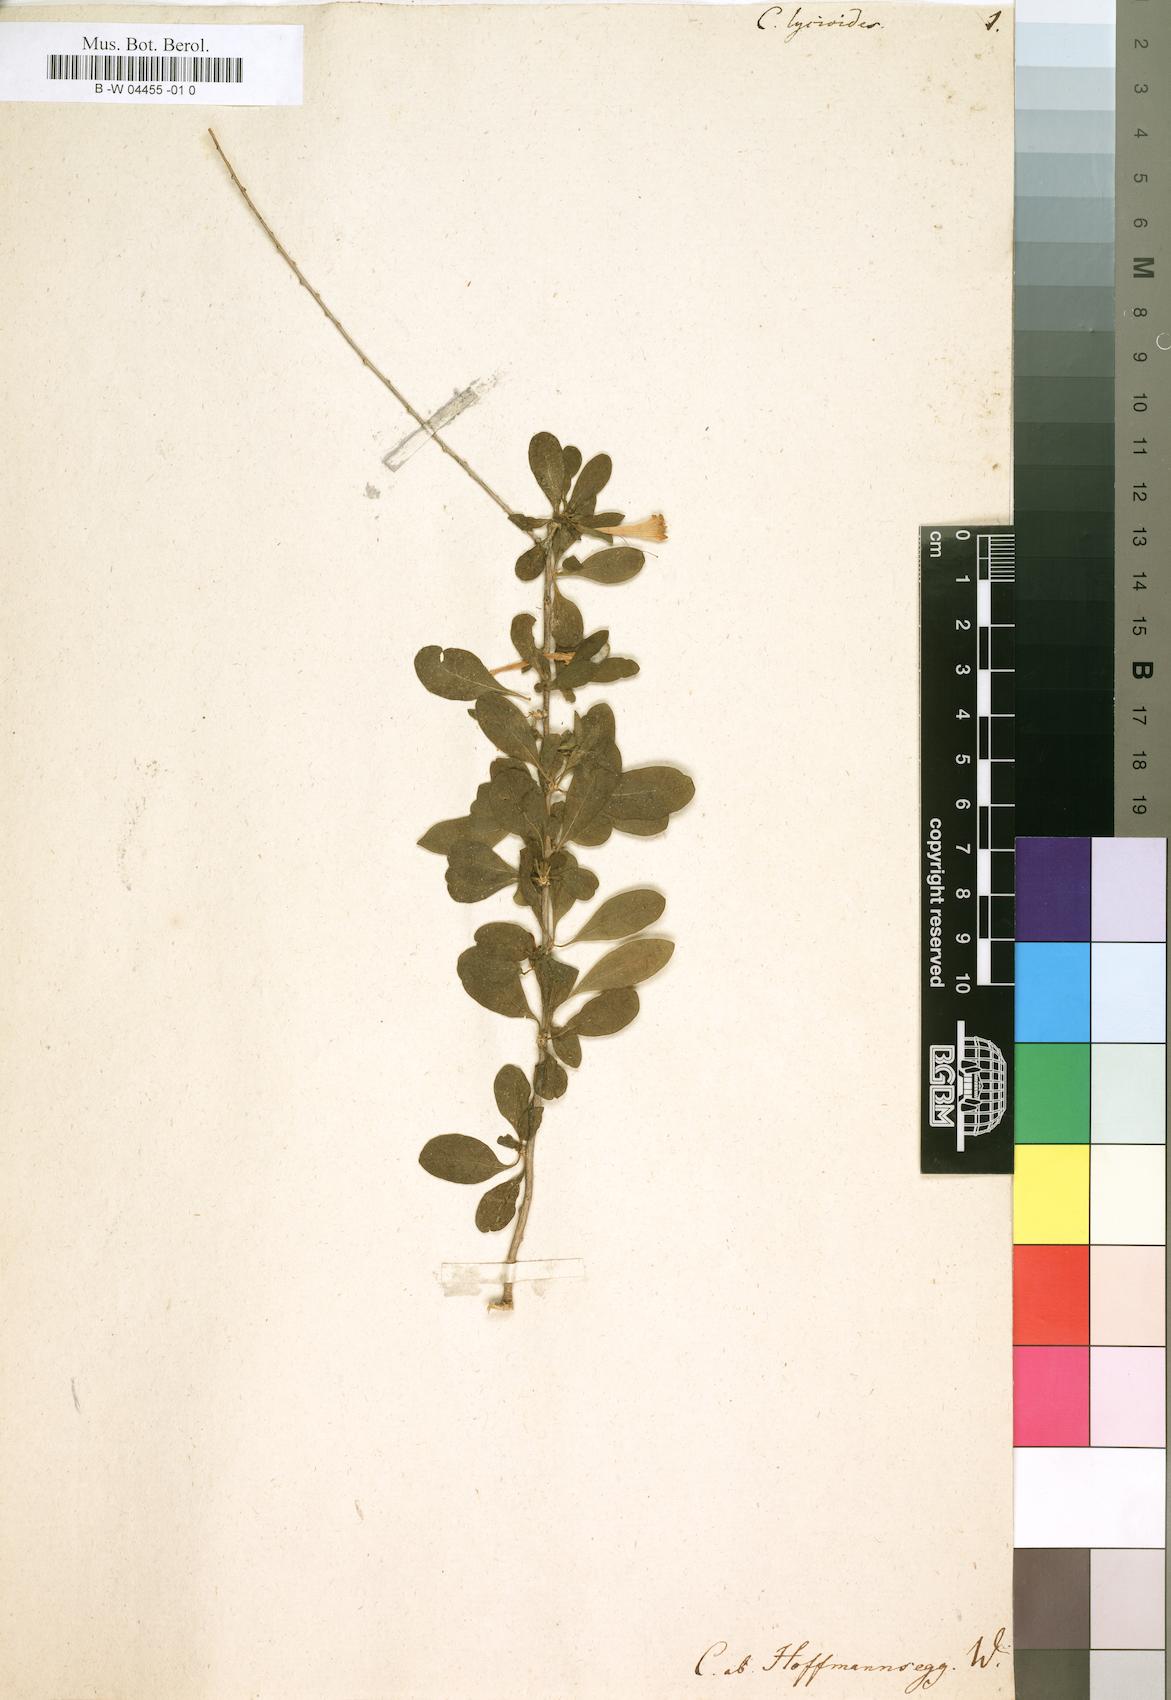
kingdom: Plantae
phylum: Tracheophyta
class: Magnoliopsida
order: Solanales
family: Solanaceae
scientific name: Solanaceae
